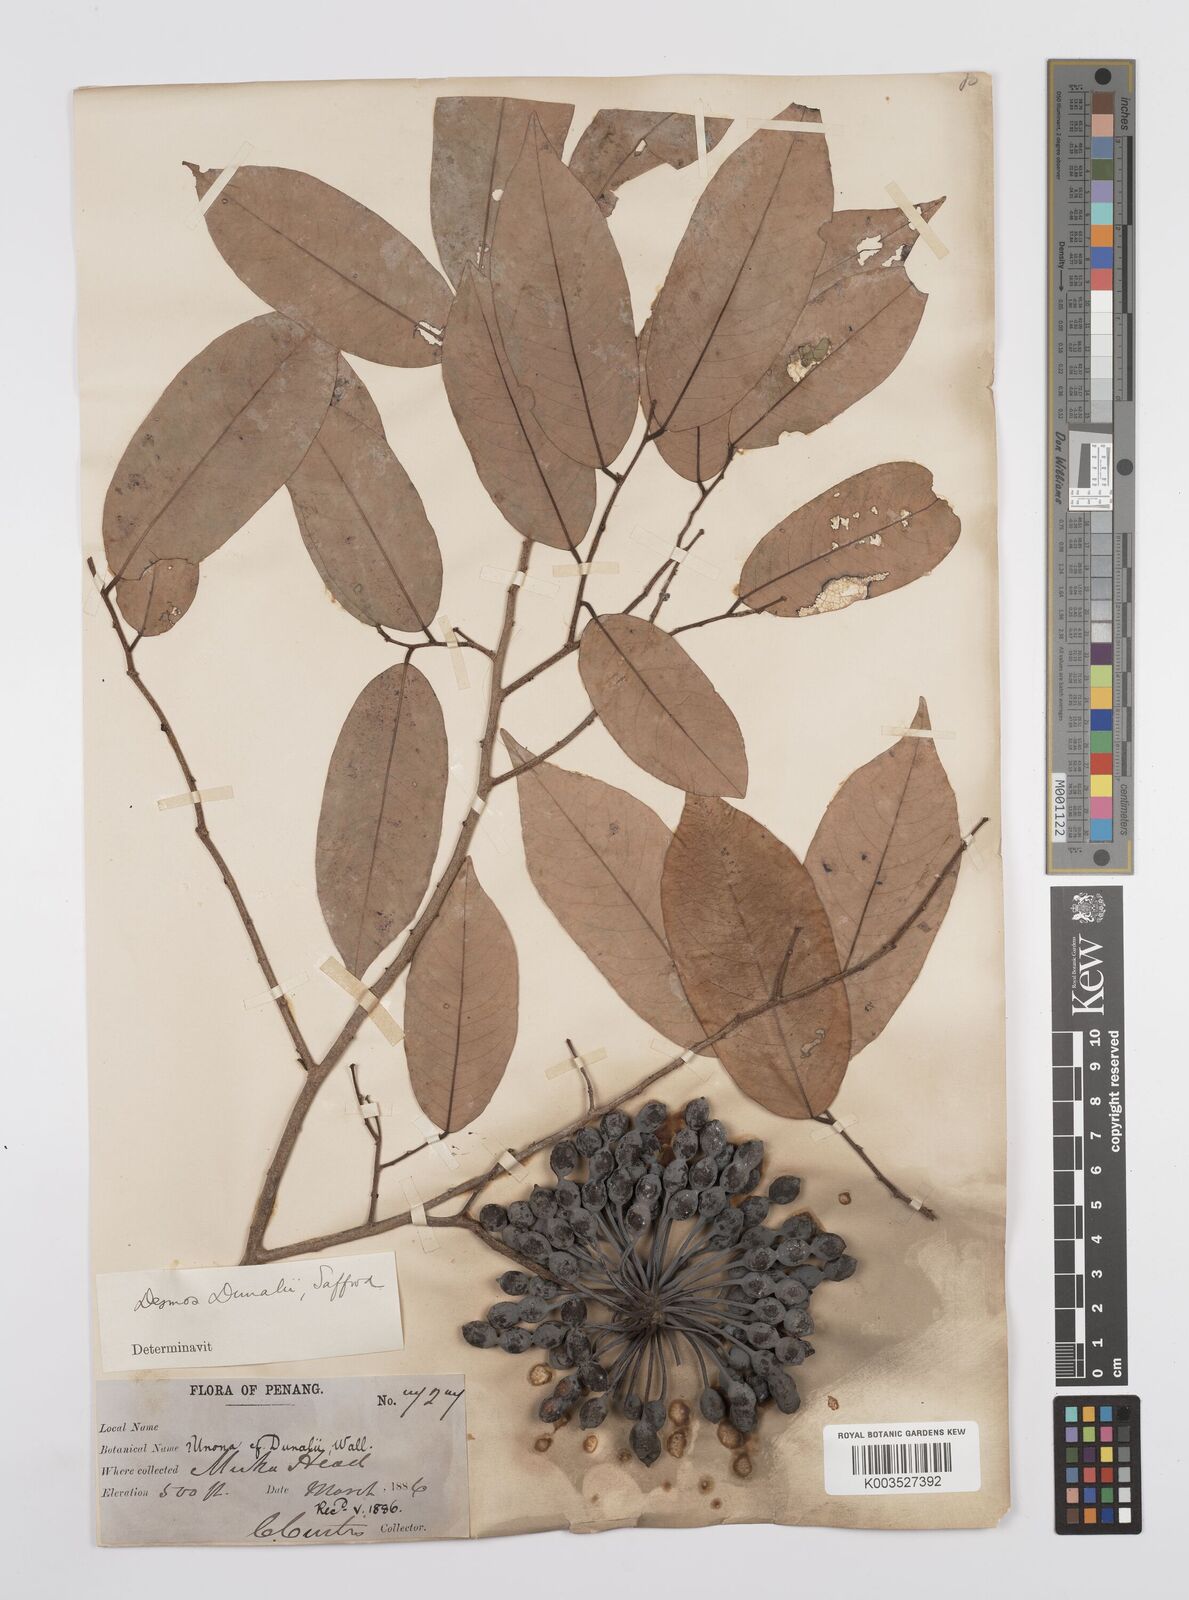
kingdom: Plantae
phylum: Tracheophyta
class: Magnoliopsida
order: Magnoliales
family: Annonaceae
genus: Desmos
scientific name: Desmos dunalii
